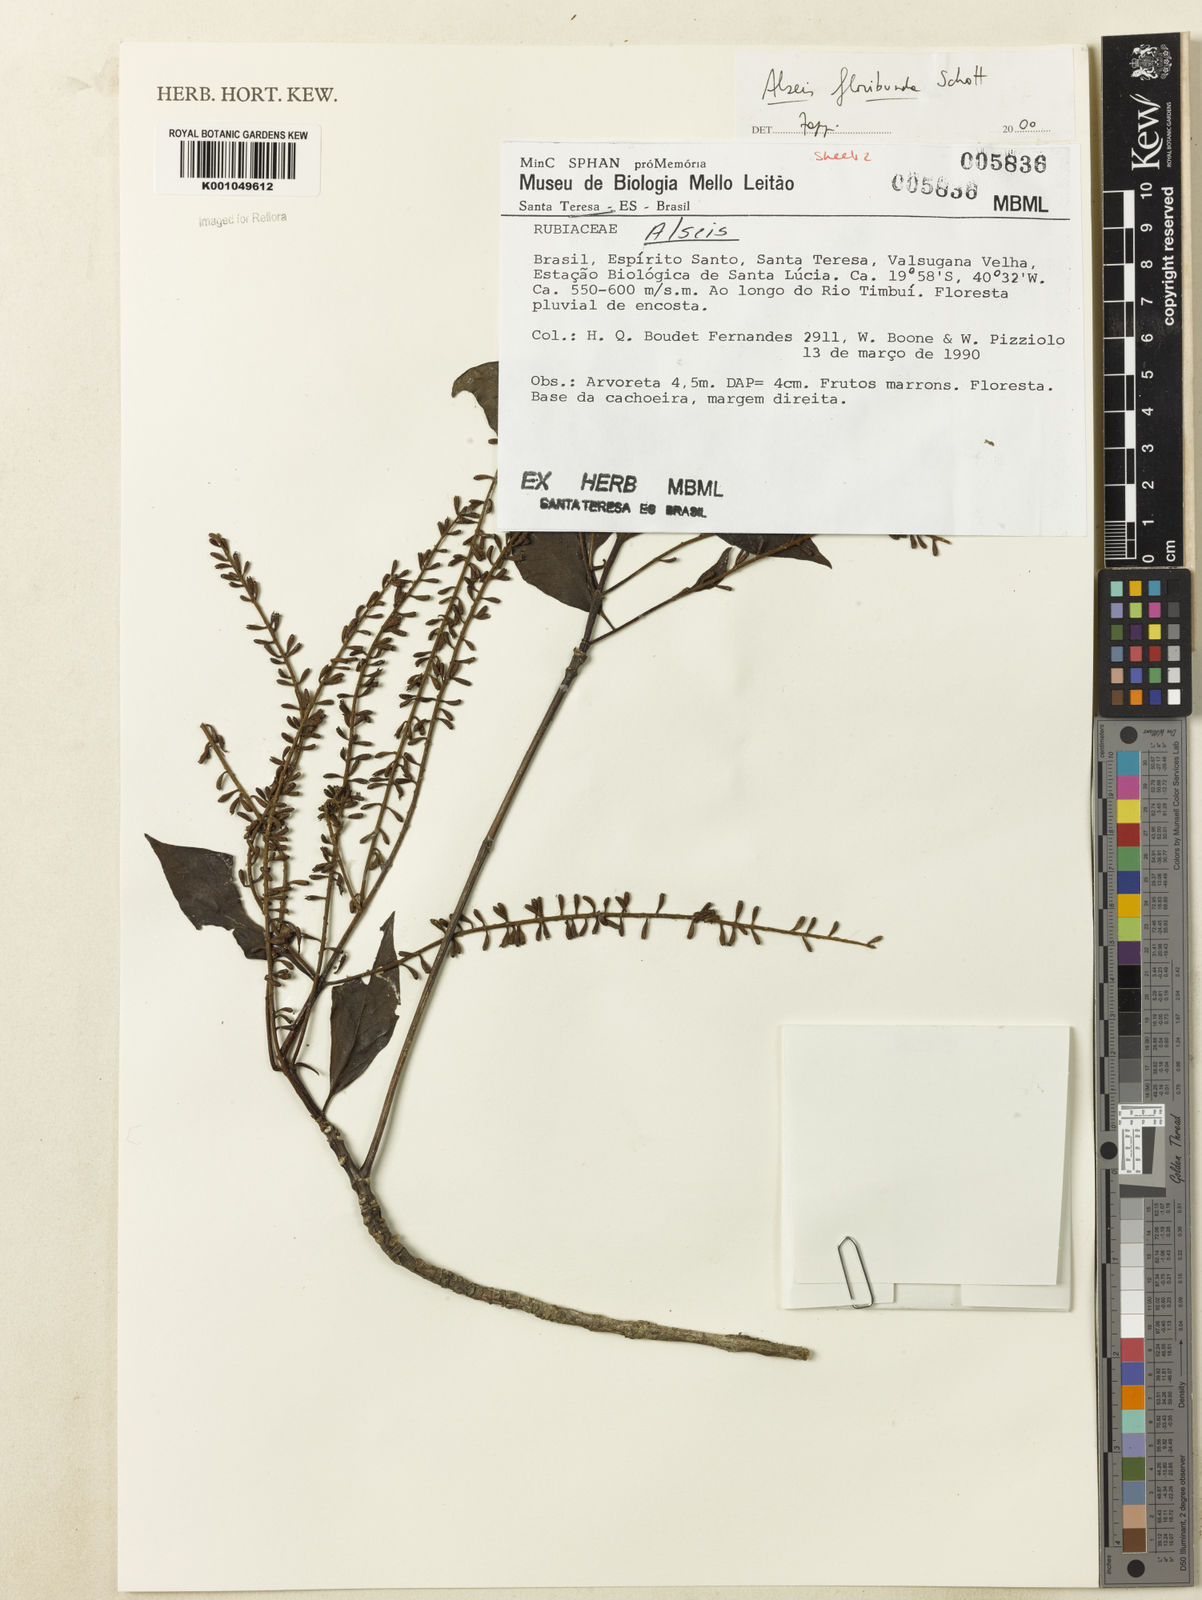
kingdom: Plantae
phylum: Tracheophyta
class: Magnoliopsida
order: Gentianales
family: Rubiaceae
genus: Alseis
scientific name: Alseis floribunda
